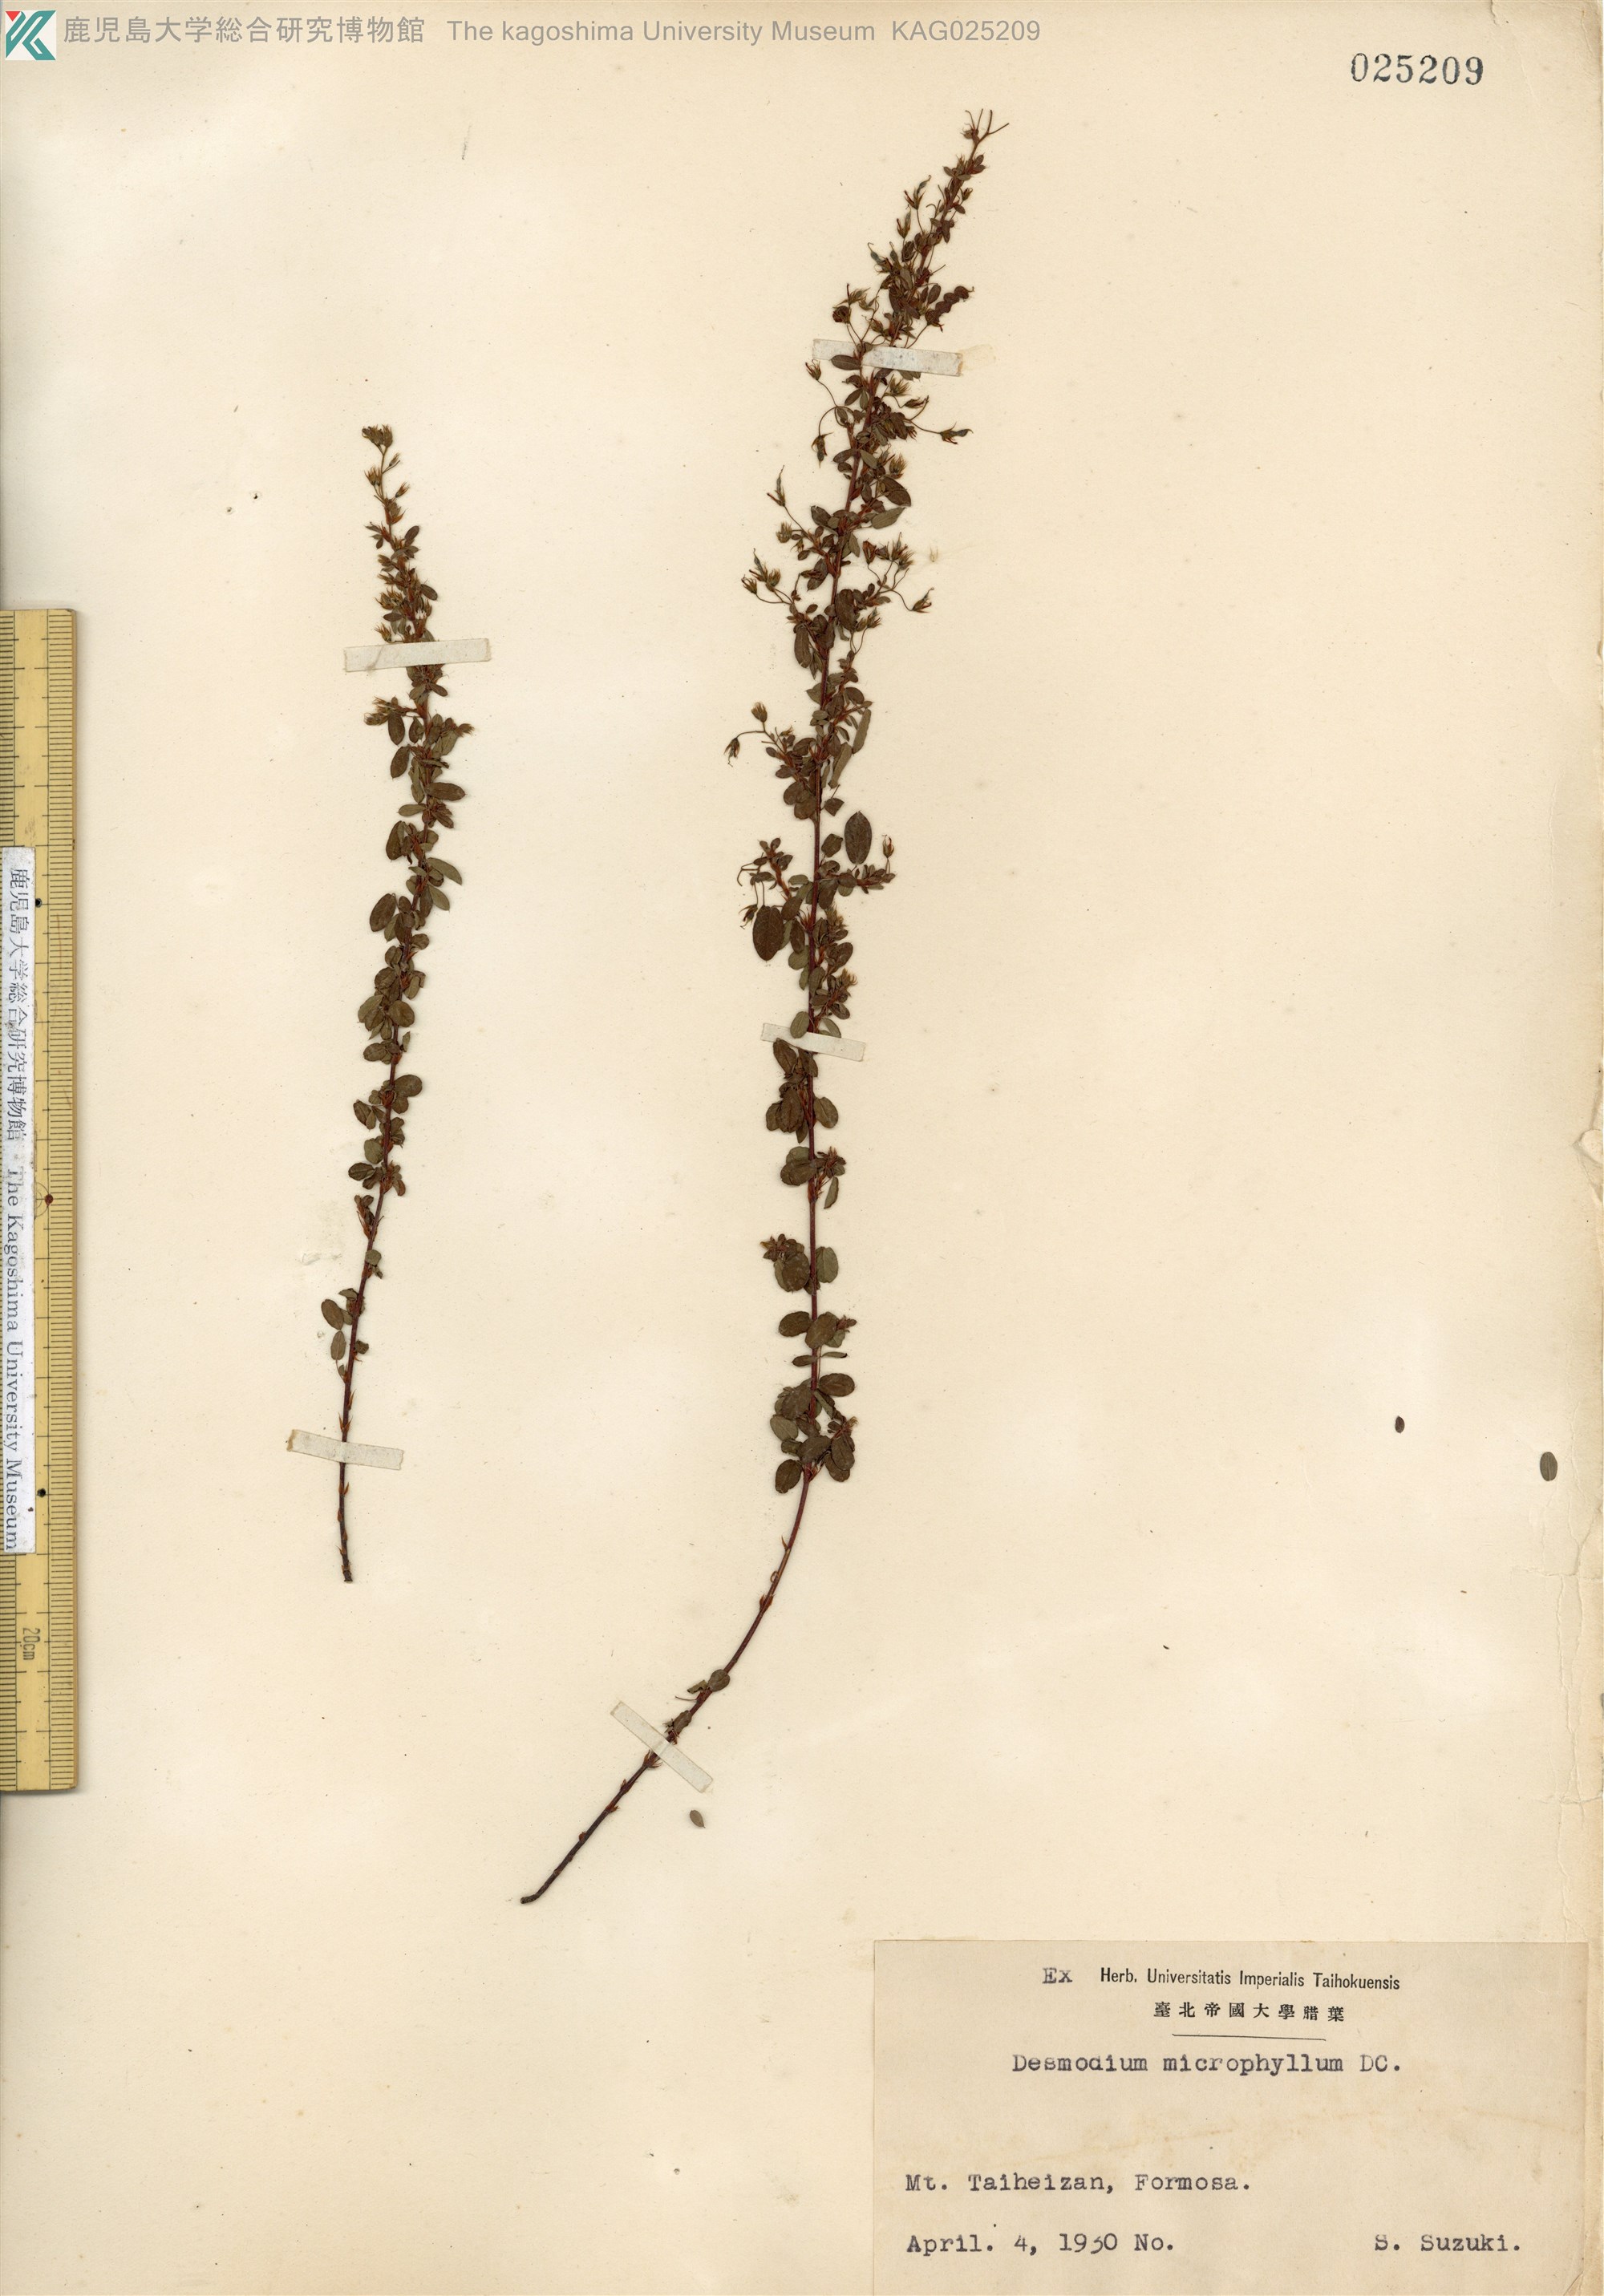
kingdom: Plantae
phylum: Tracheophyta
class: Magnoliopsida
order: Fabales
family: Fabaceae
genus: Leptodesmia
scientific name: Leptodesmia microphylla
